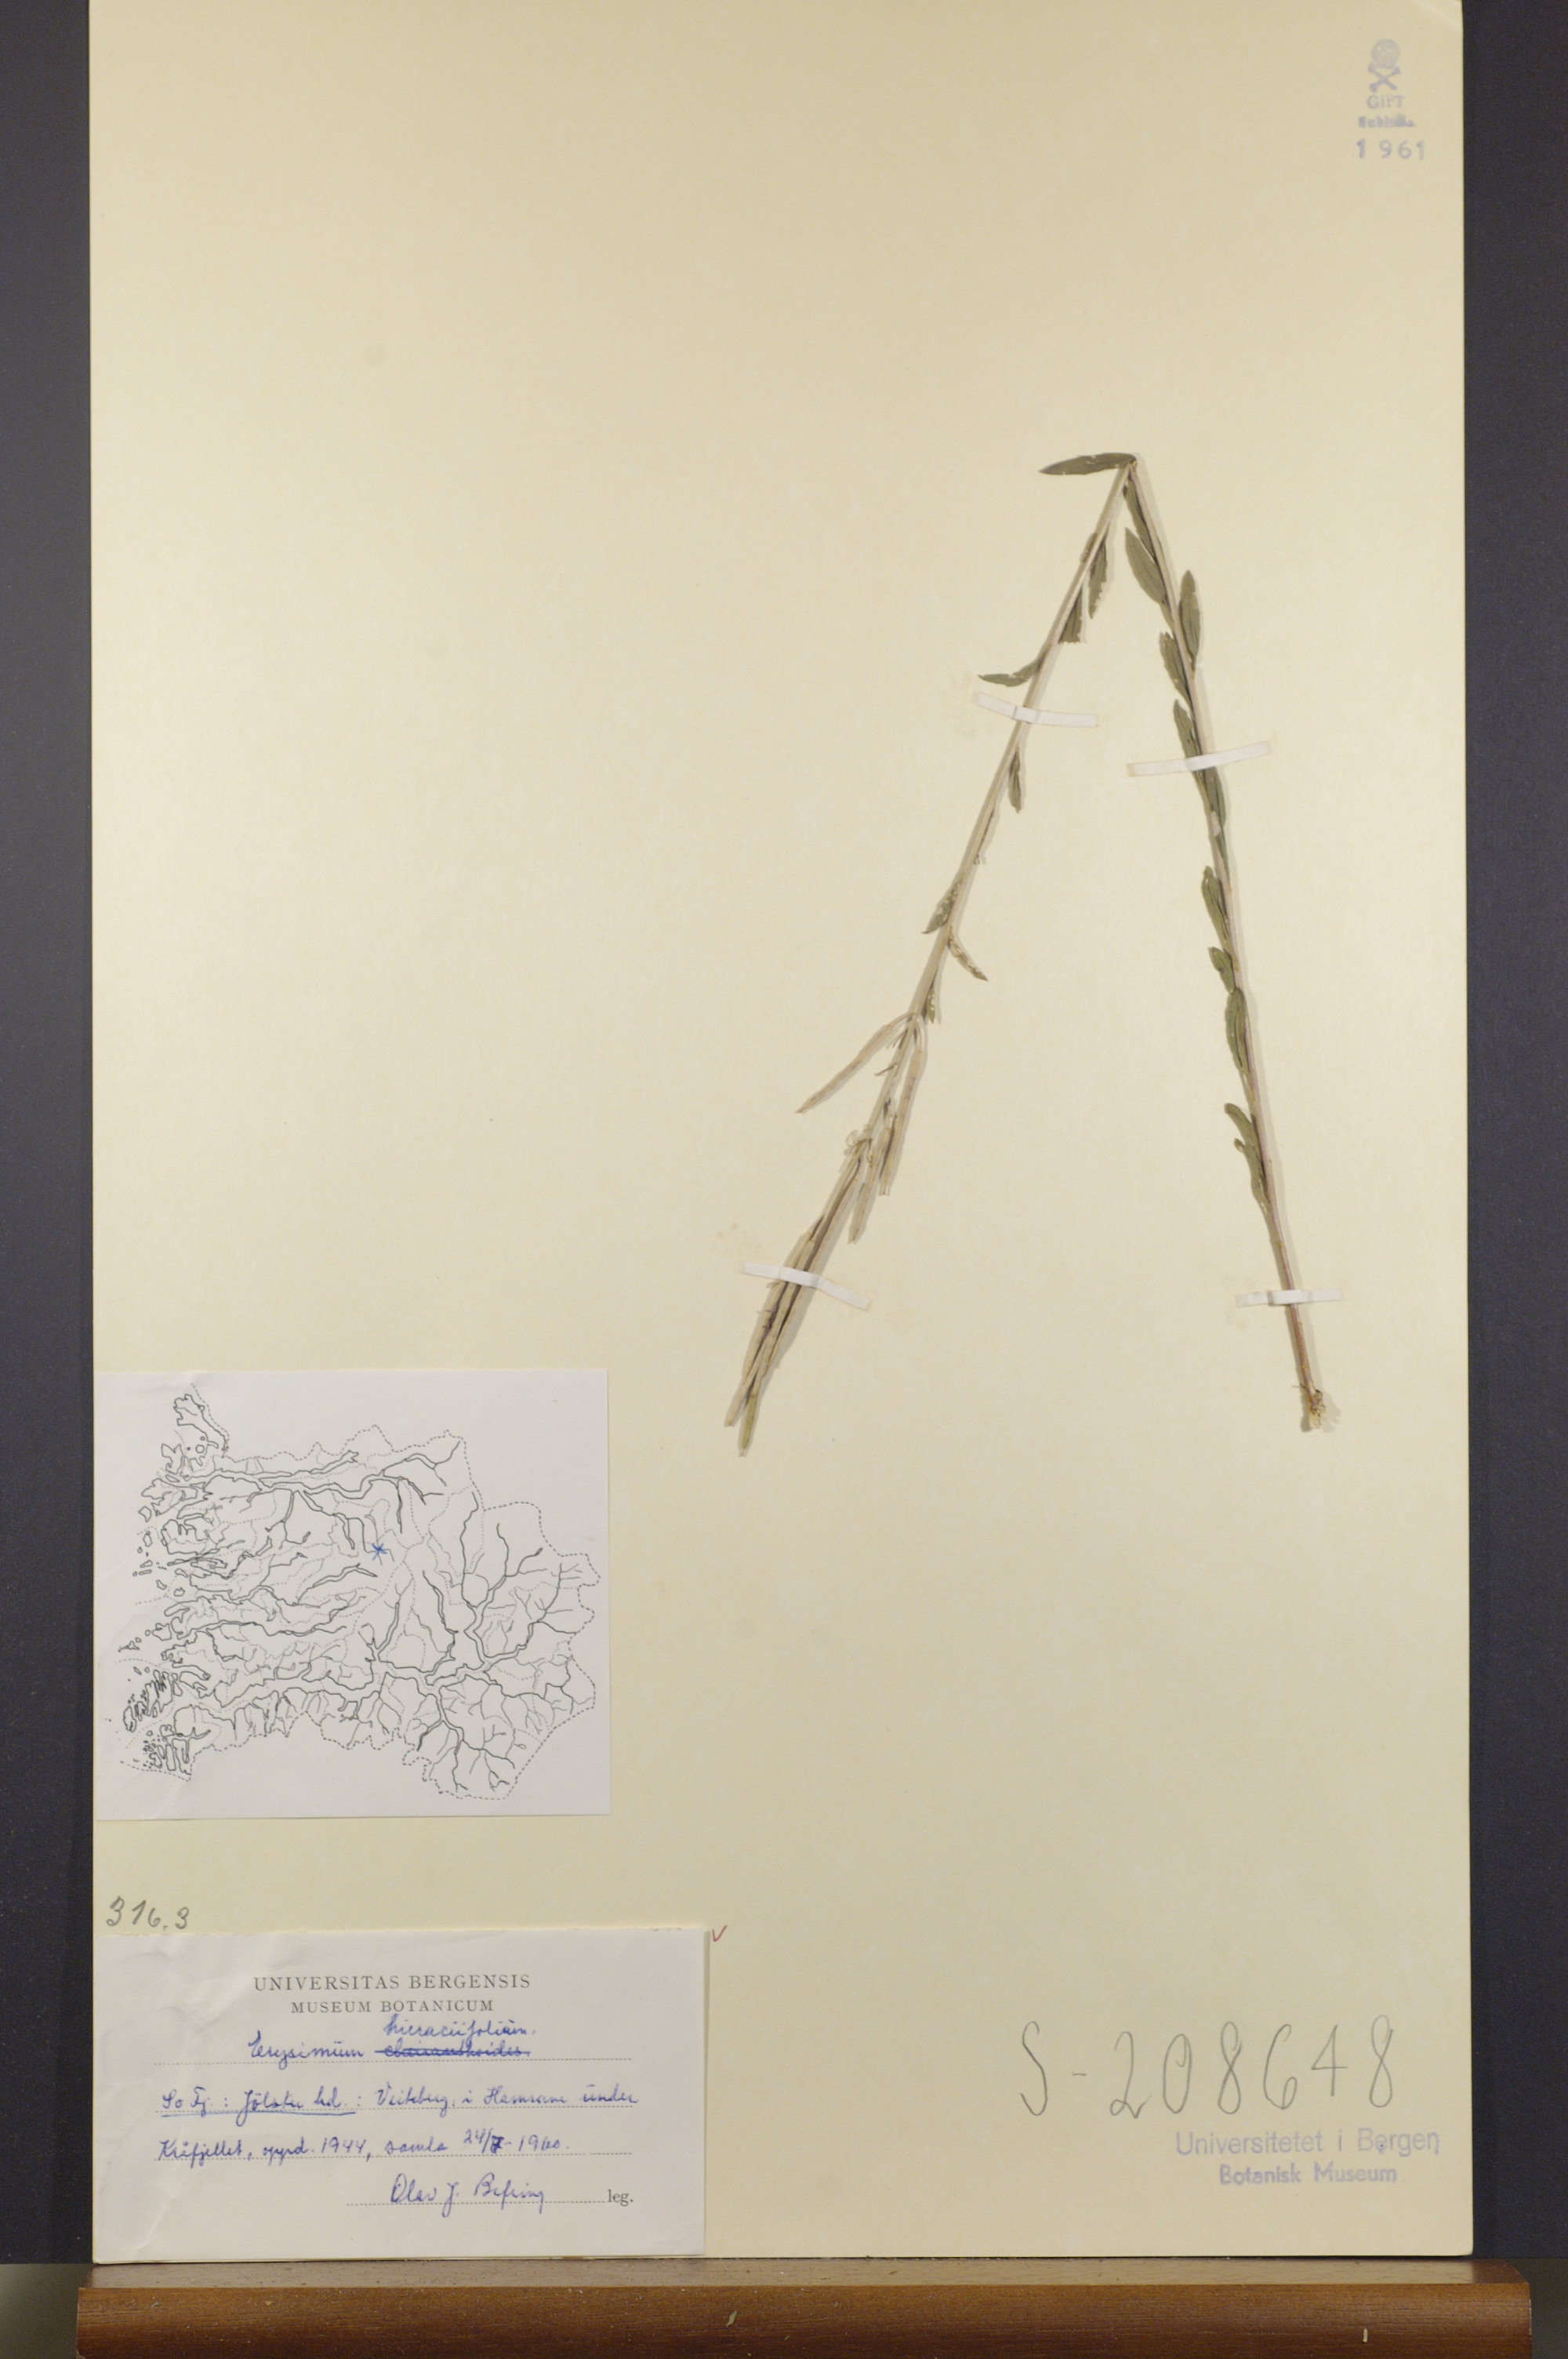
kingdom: Plantae
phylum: Tracheophyta
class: Magnoliopsida
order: Brassicales
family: Brassicaceae
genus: Erysimum
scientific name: Erysimum hieraciifolium
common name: European wallflower
